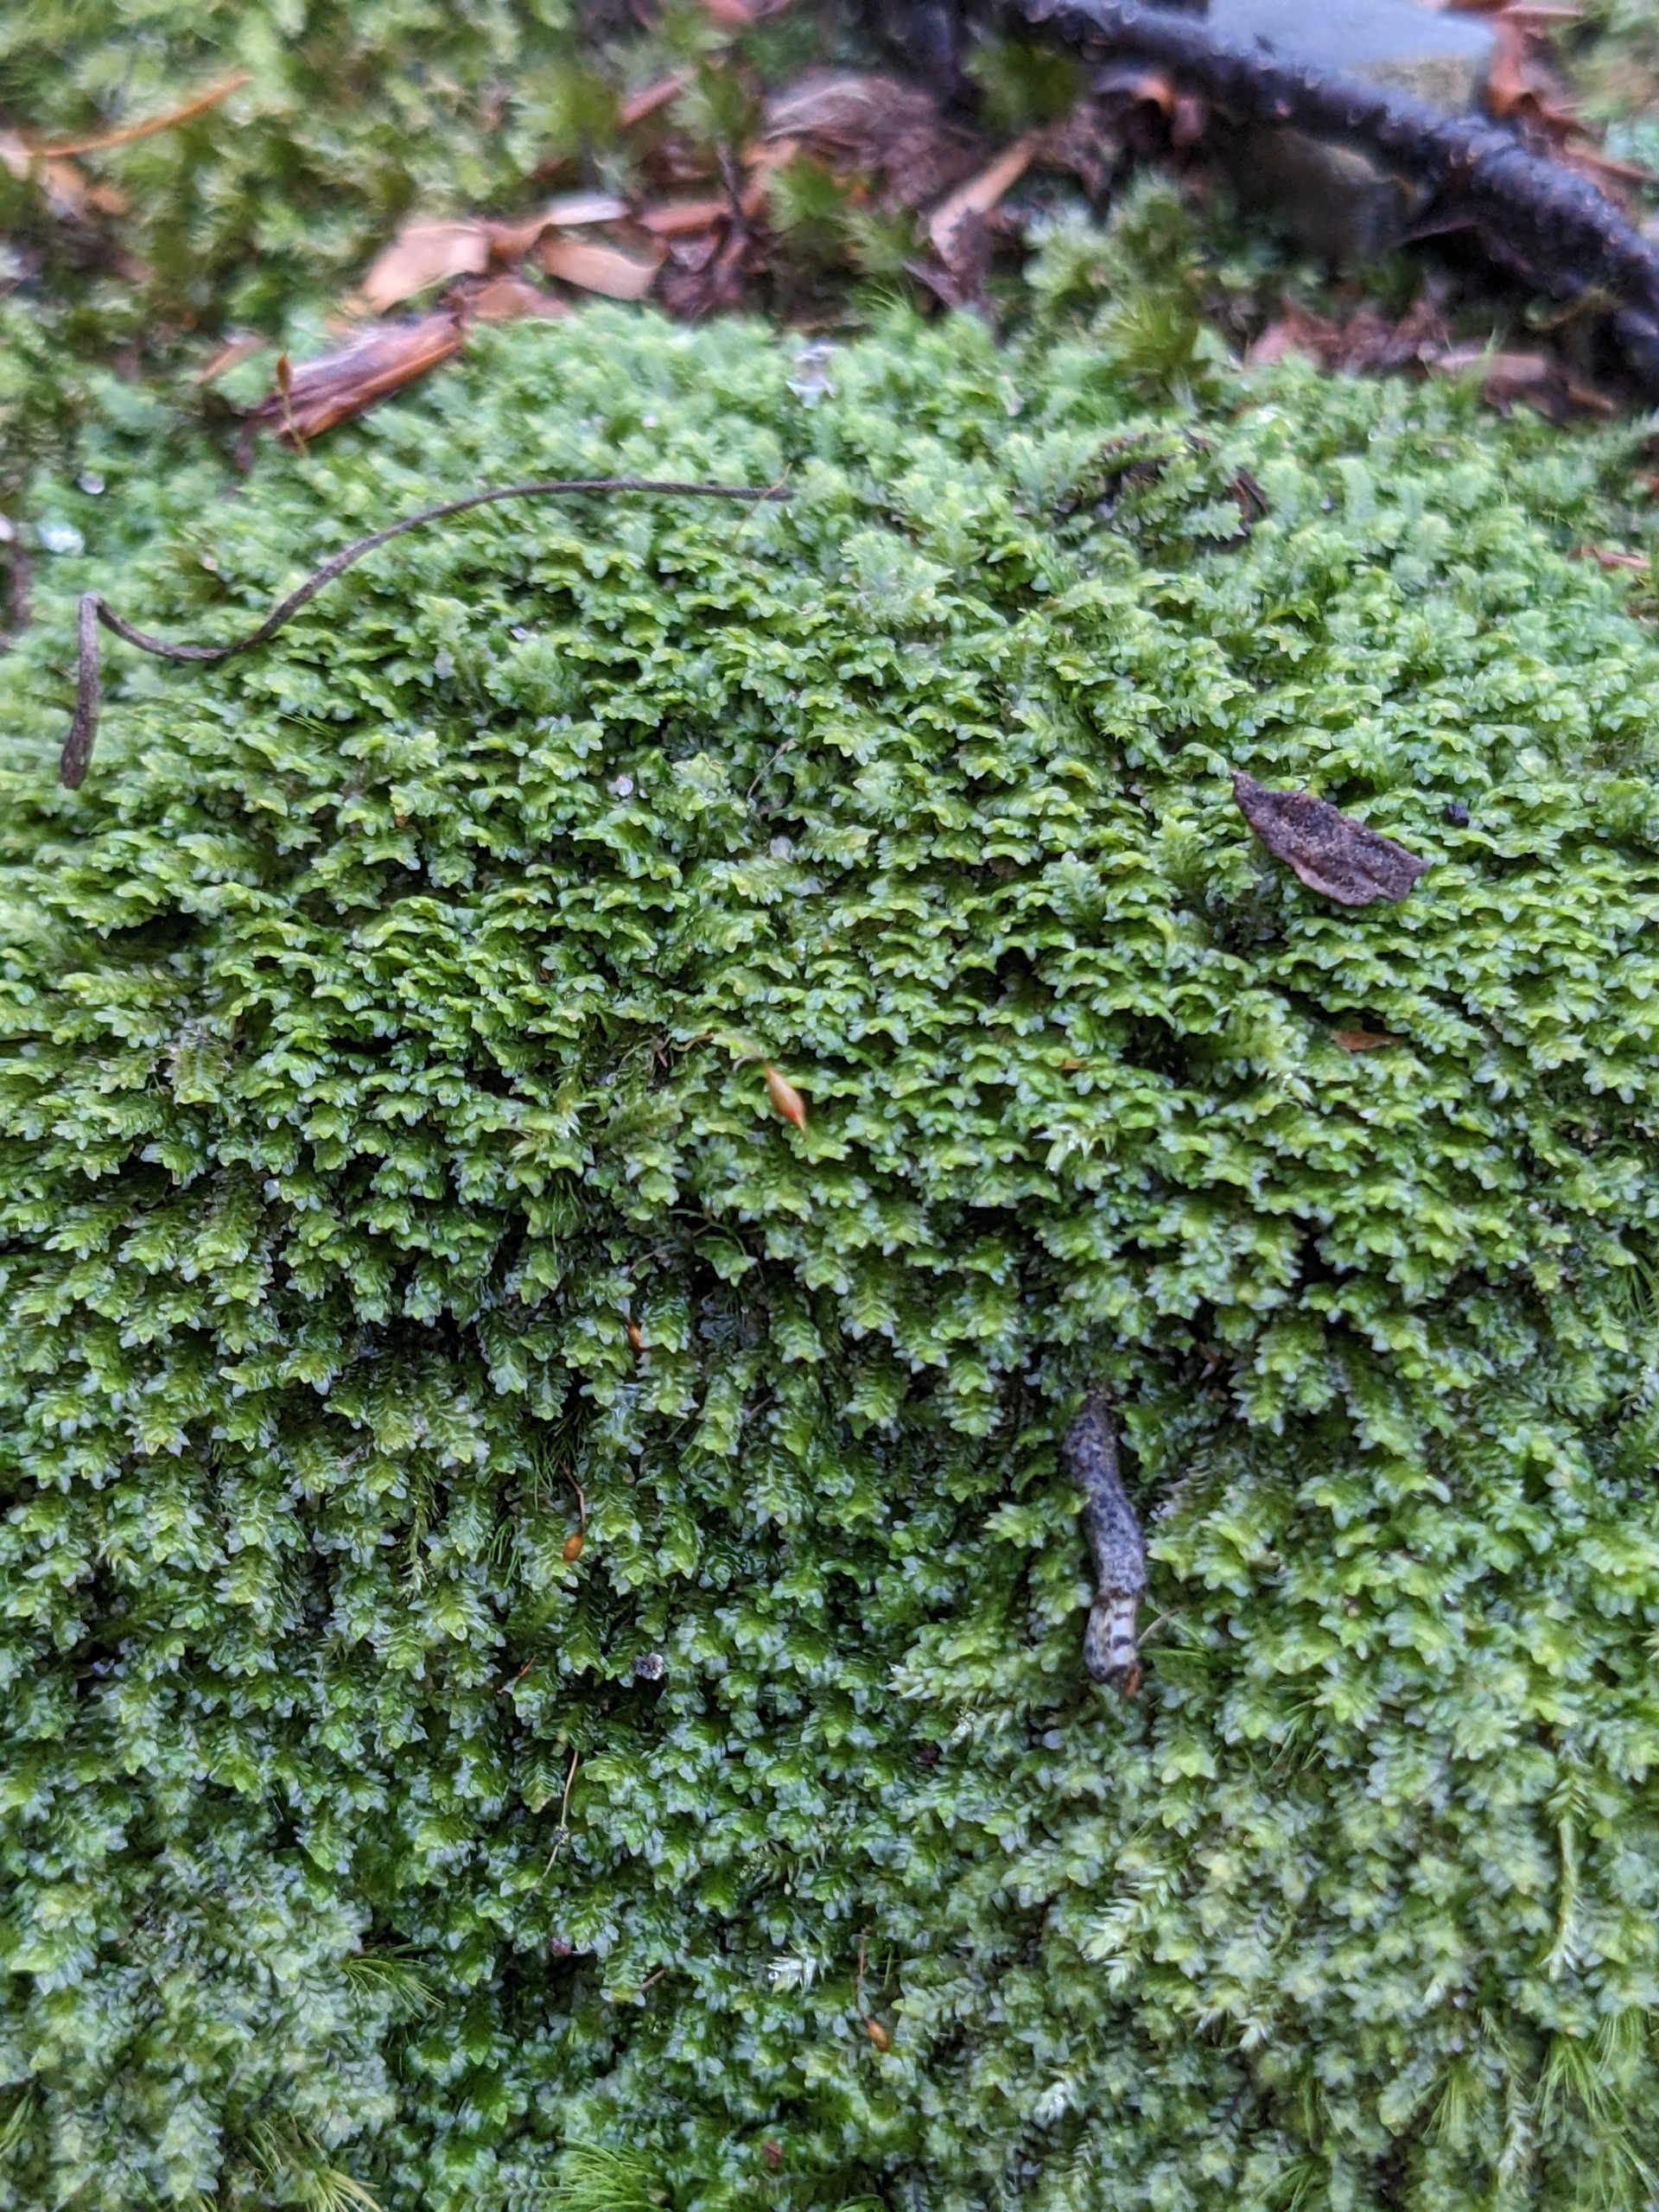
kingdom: Plantae
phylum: Marchantiophyta
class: Jungermanniopsida
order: Jungermanniales
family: Scapaniaceae
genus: Diplophyllum
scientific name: Diplophyllum albicans
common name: Stribet dobbeltblad
